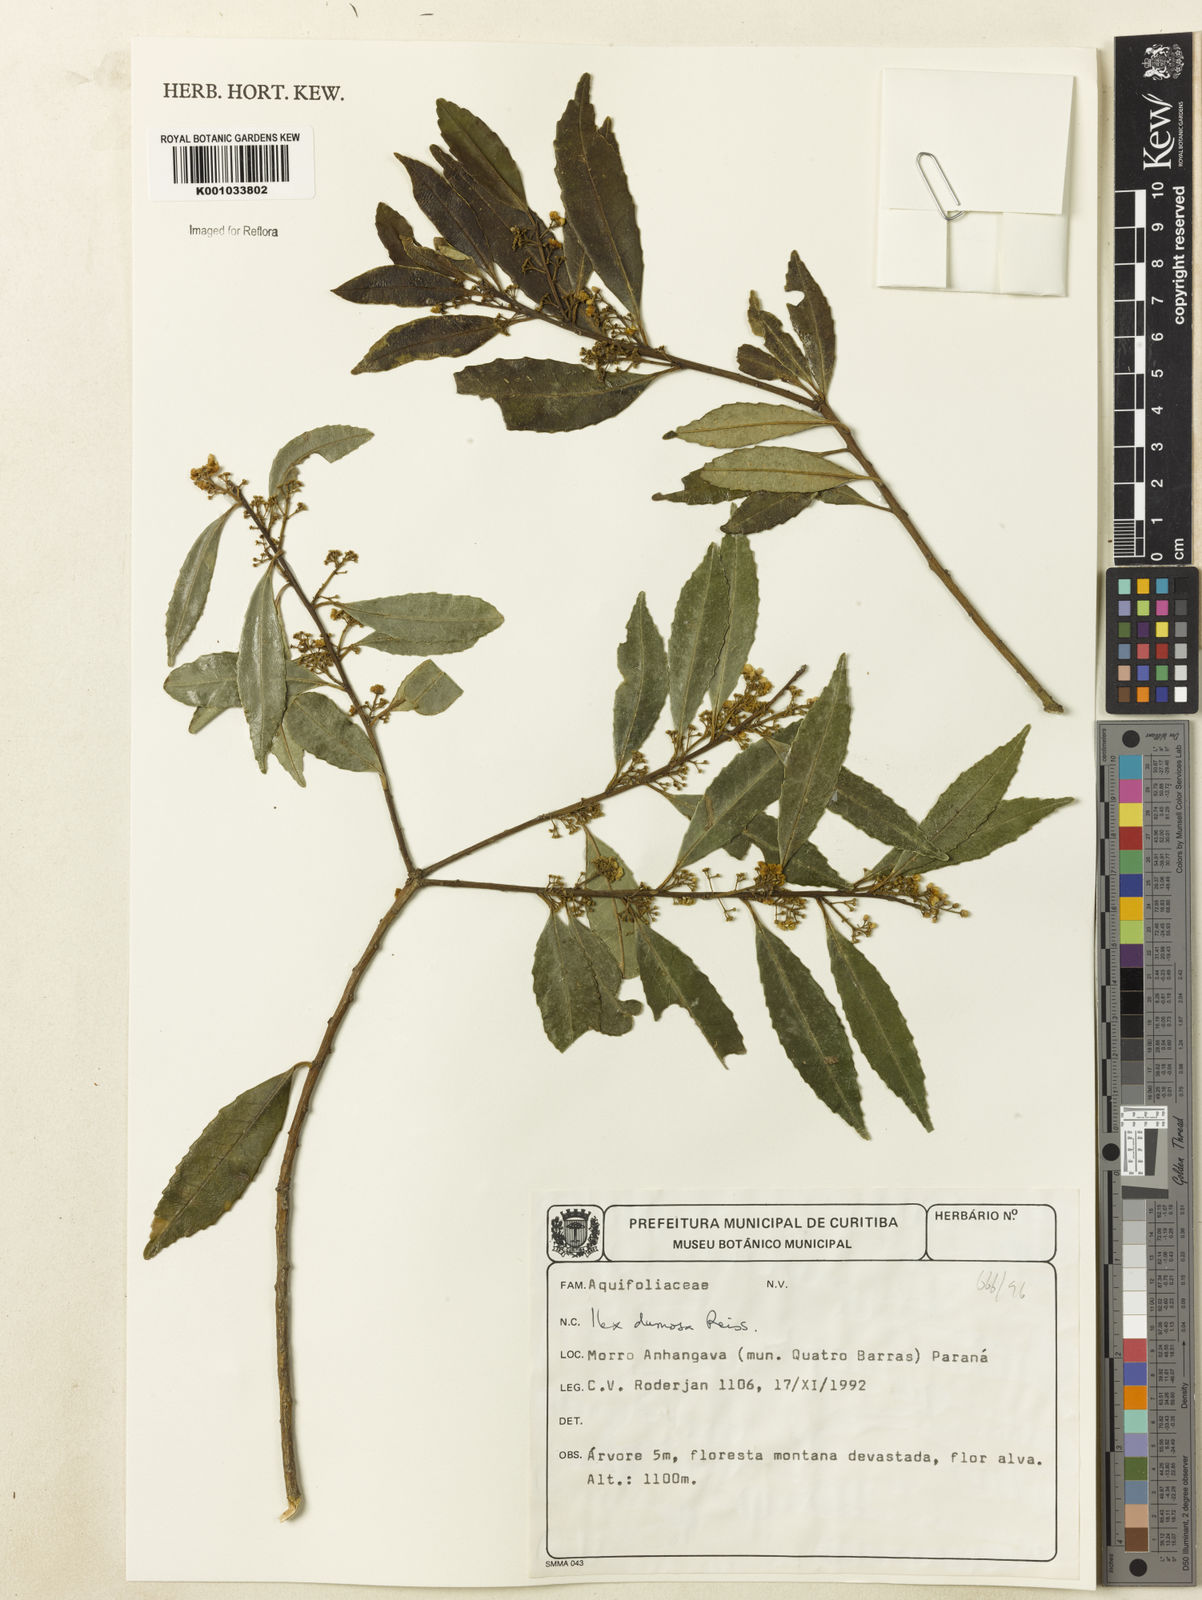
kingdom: Plantae
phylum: Tracheophyta
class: Magnoliopsida
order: Aquifoliales
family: Aquifoliaceae
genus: Ilex
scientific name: Ilex dumosa
